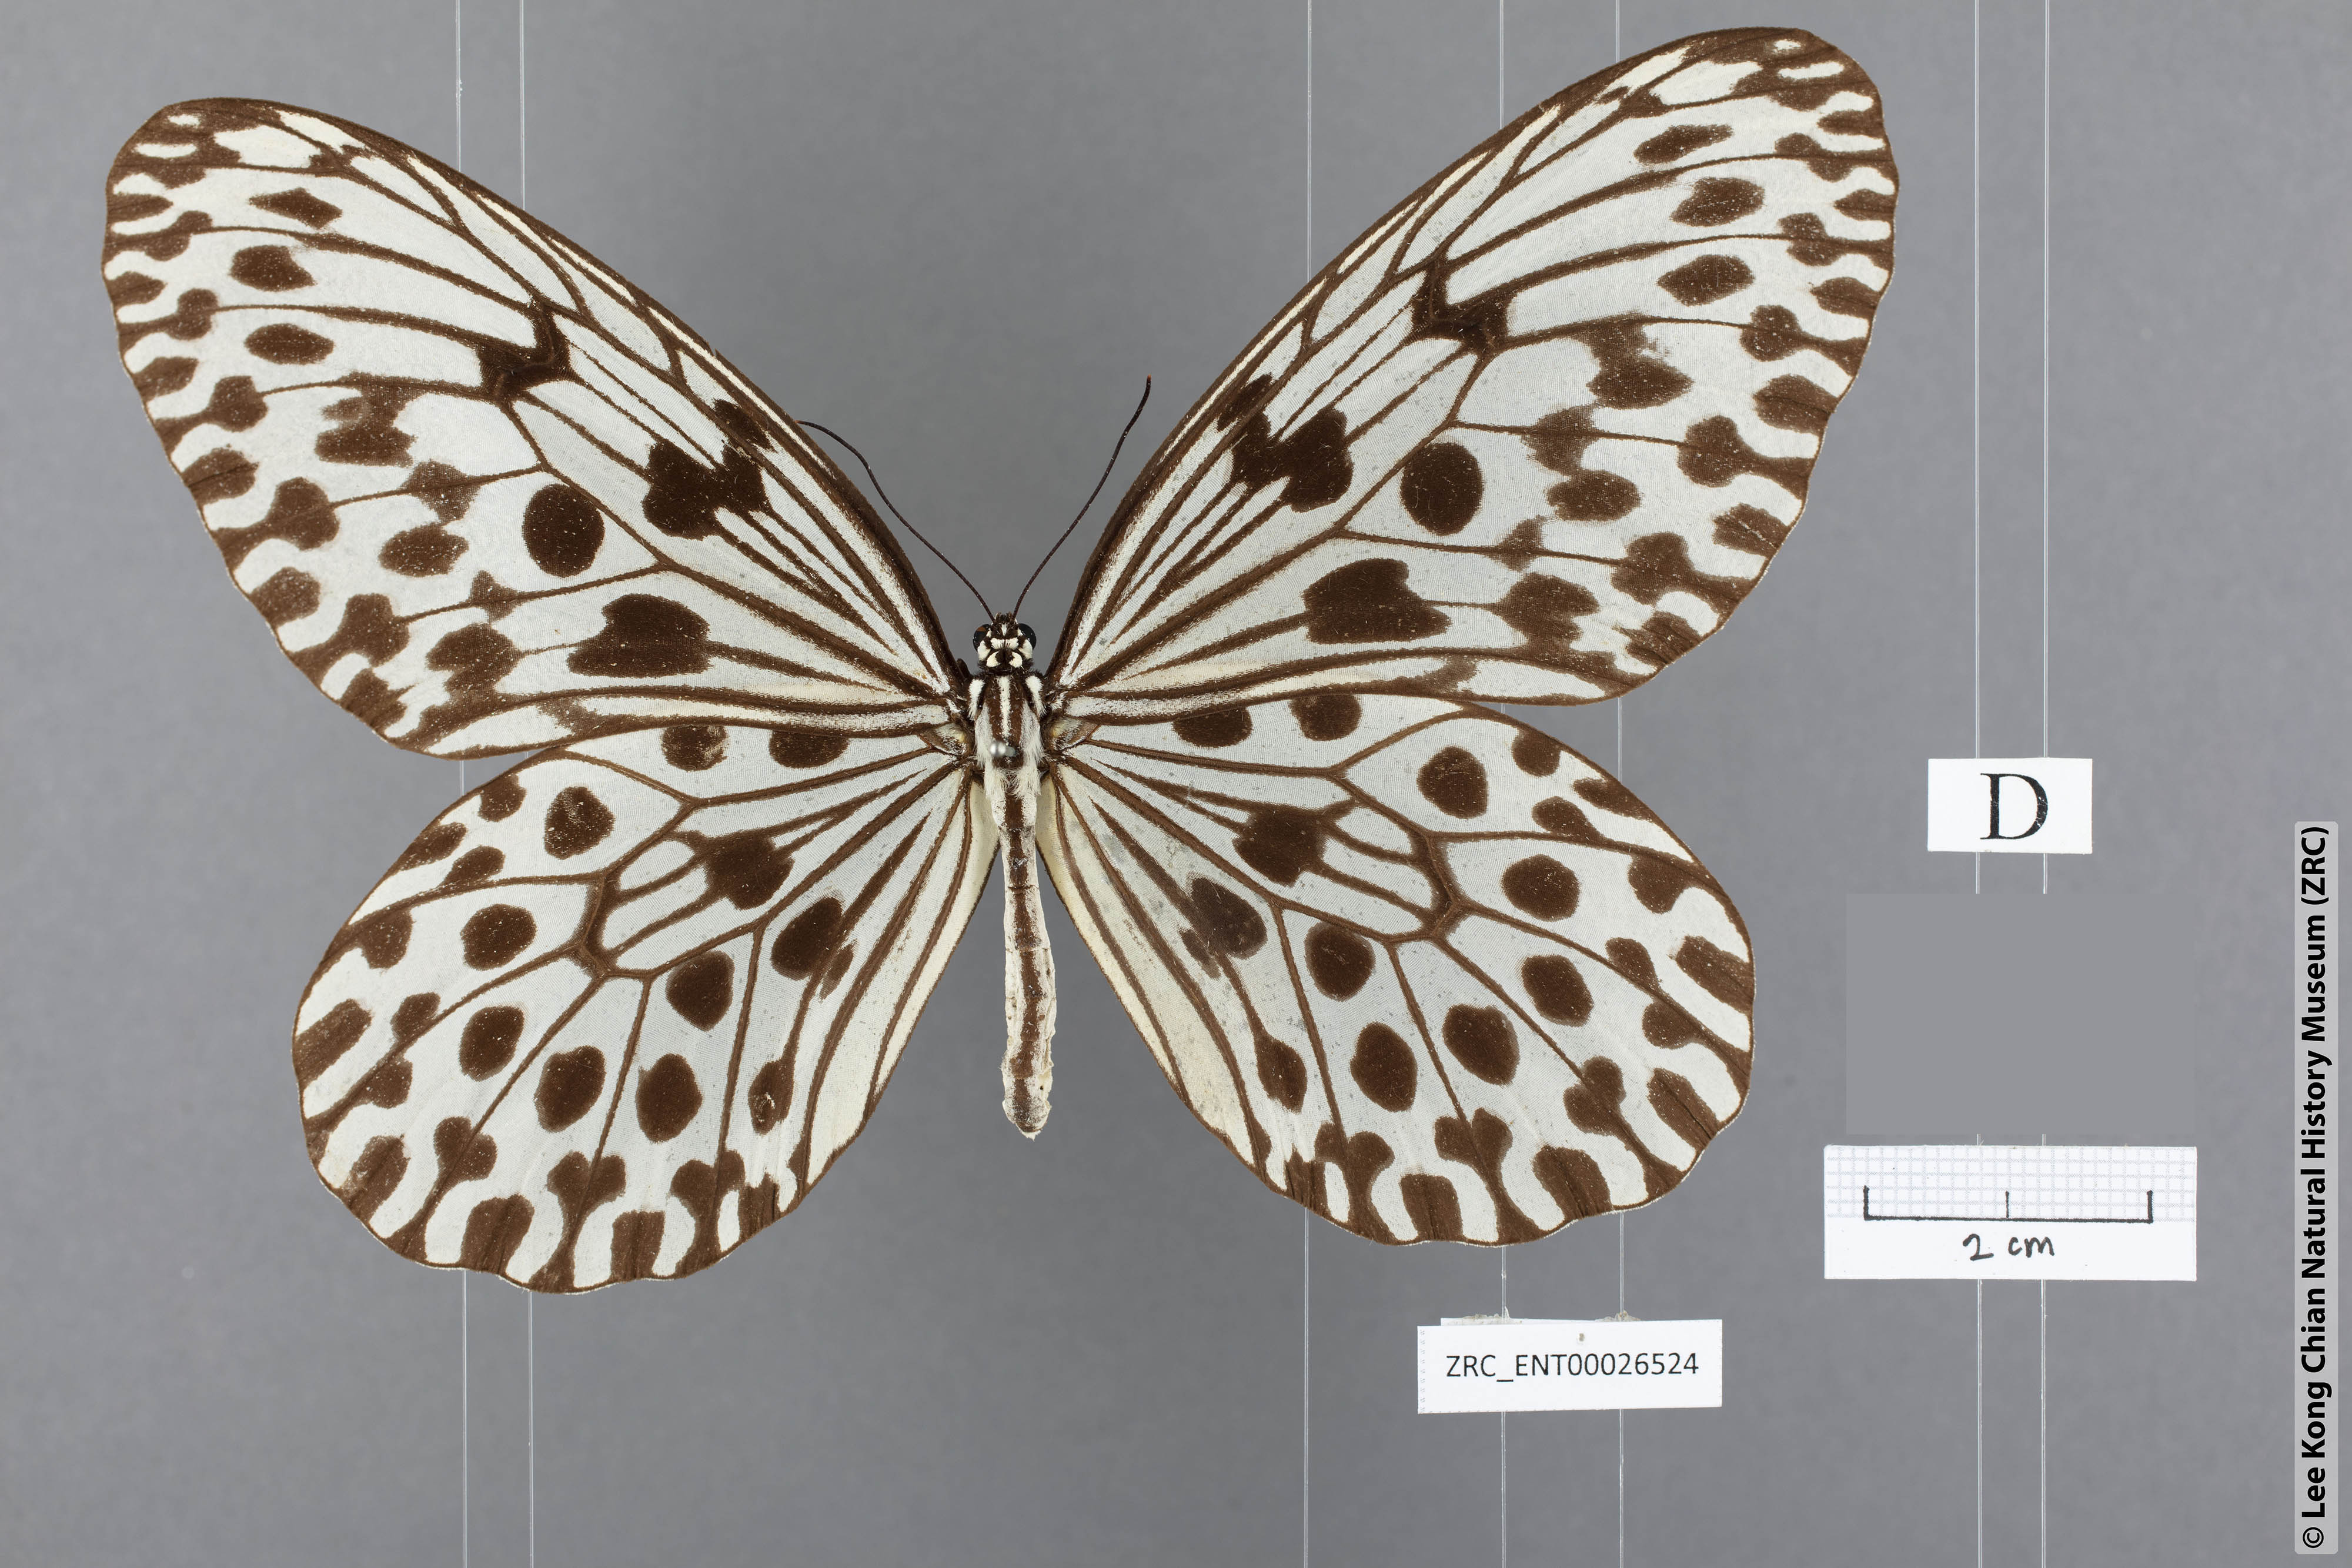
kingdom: Animalia
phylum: Arthropoda
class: Insecta
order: Lepidoptera
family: Nymphalidae
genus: Idea
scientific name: Idea hypermnestra
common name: Malayan tree nymph
